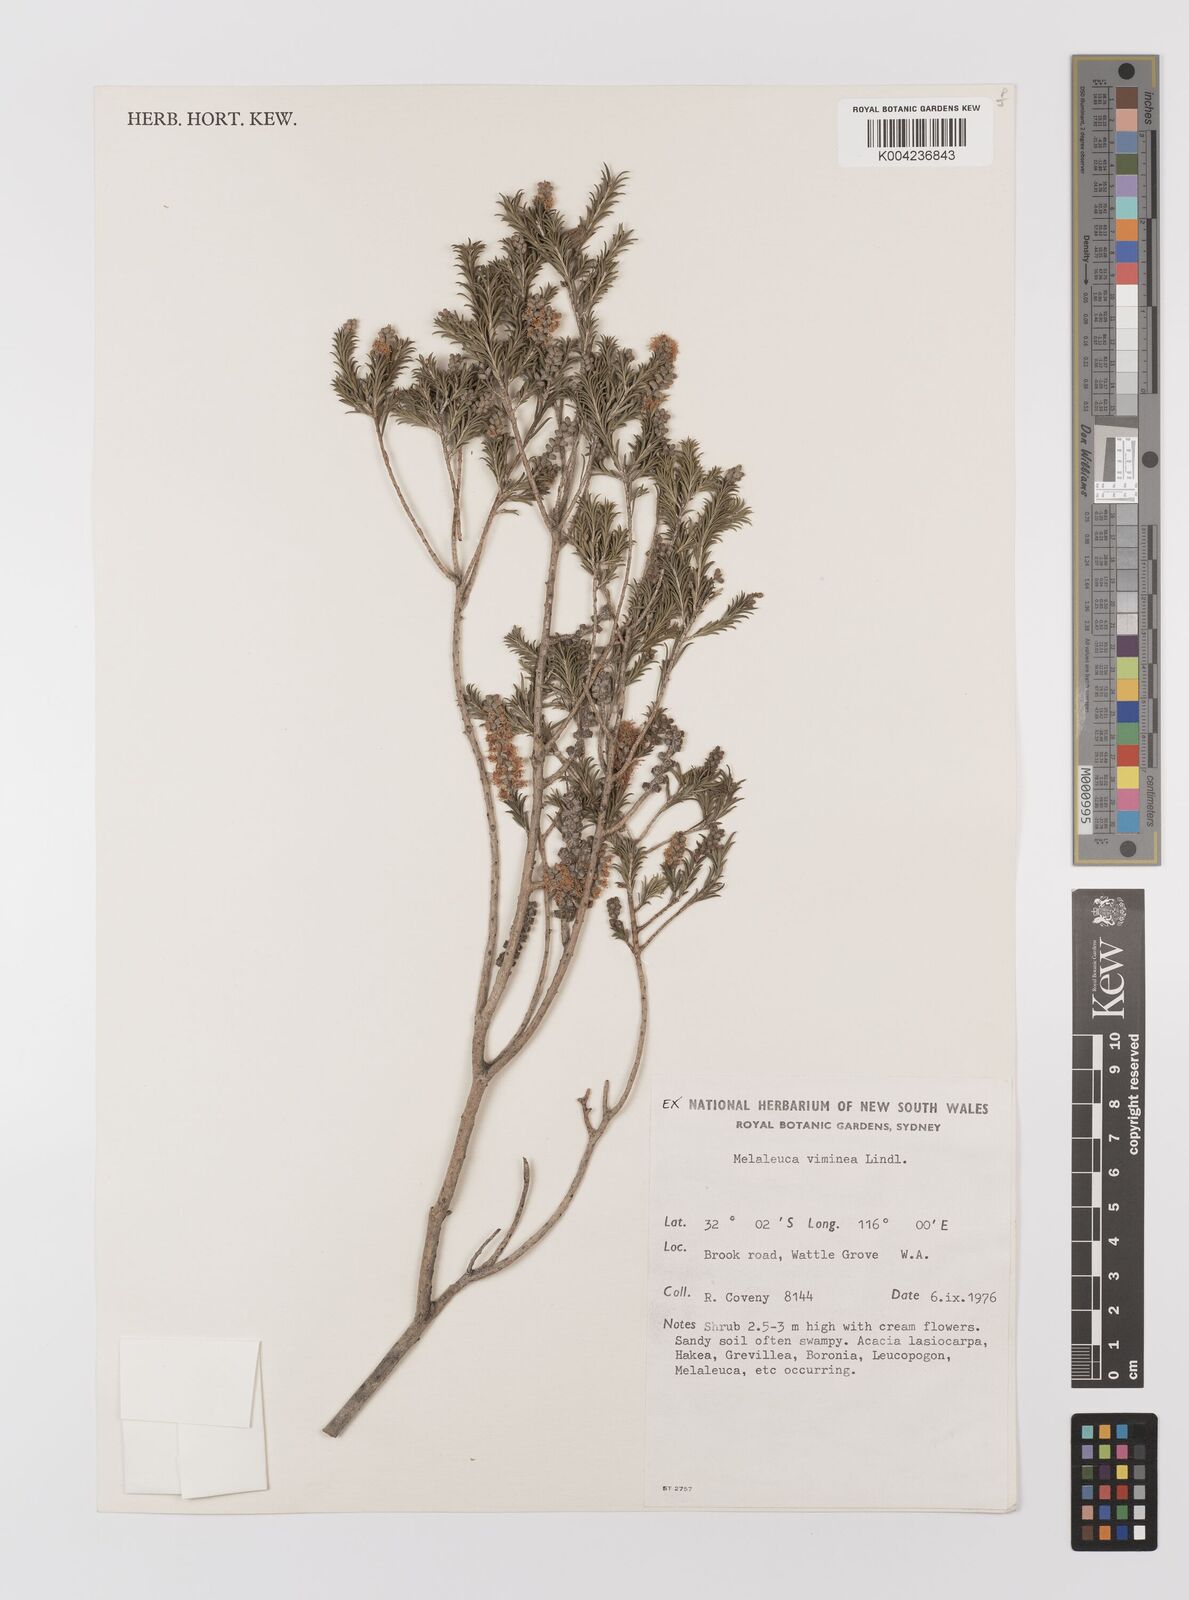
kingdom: Plantae
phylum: Tracheophyta
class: Magnoliopsida
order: Myrtales
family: Myrtaceae
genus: Melaleuca
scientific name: Melaleuca viminea
